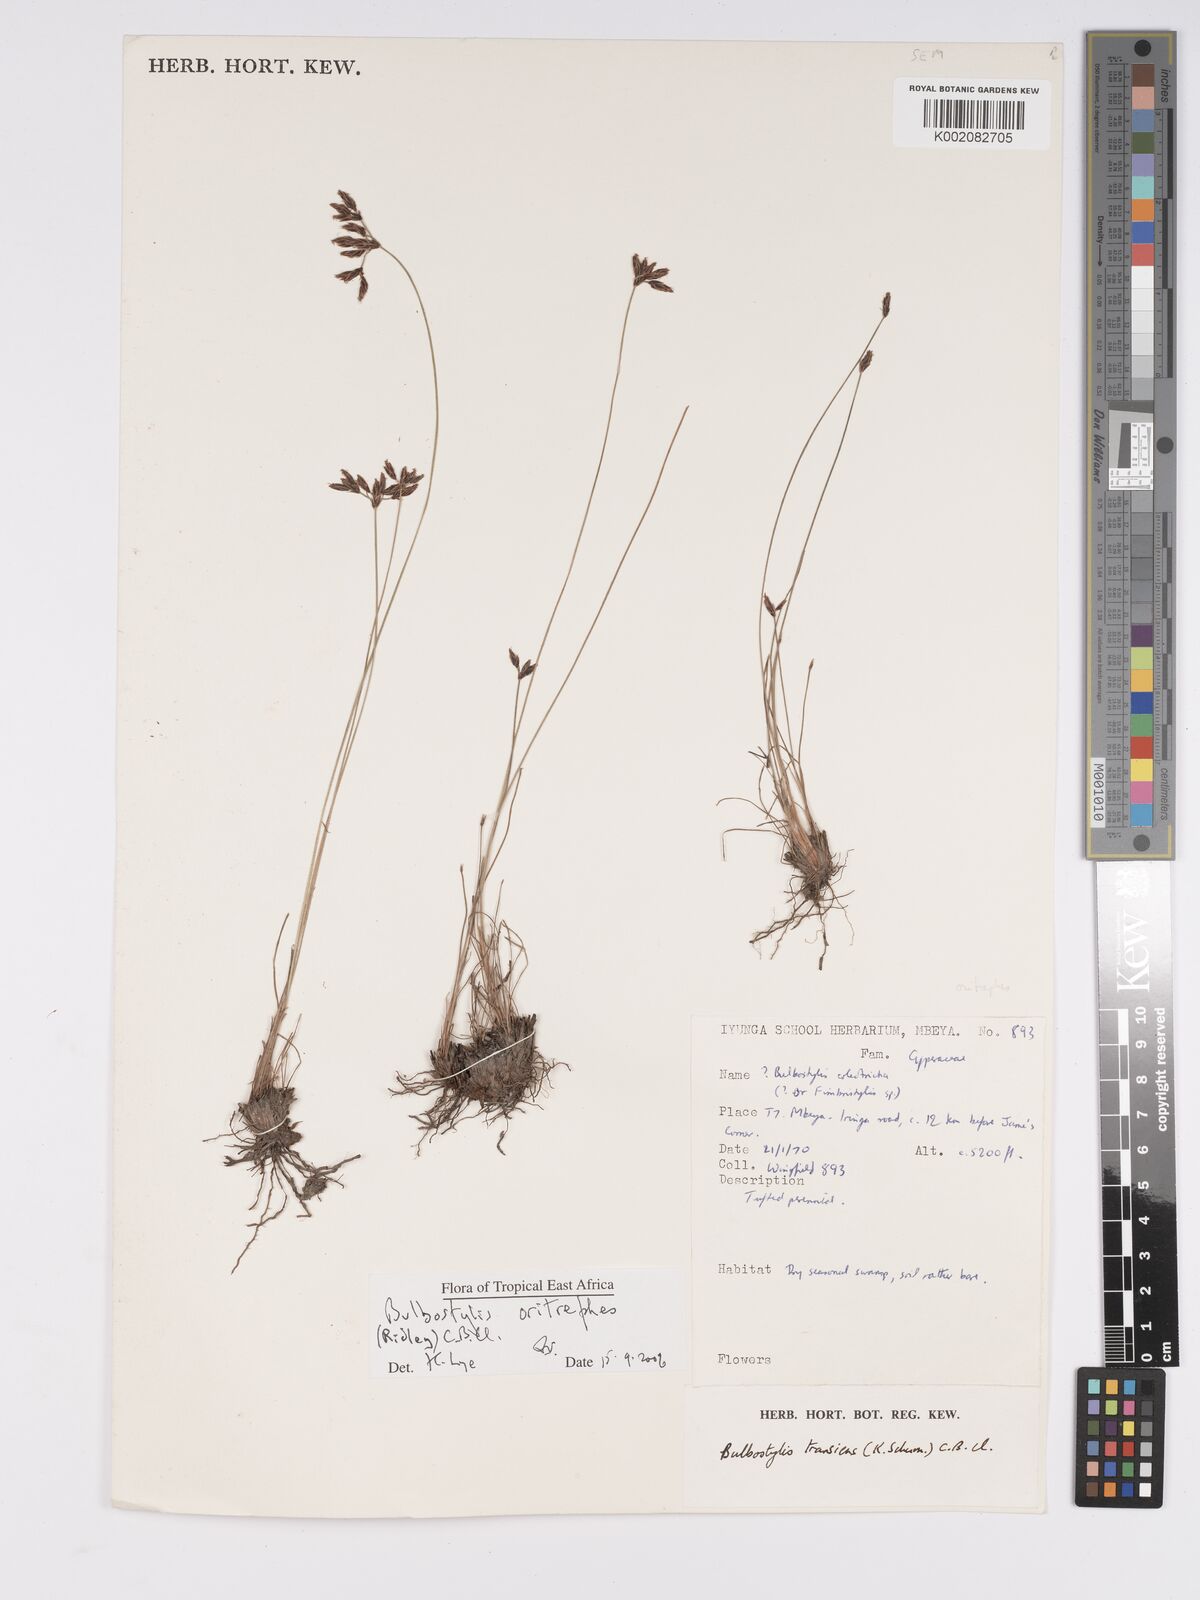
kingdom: Plantae
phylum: Tracheophyta
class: Liliopsida
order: Poales
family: Cyperaceae
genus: Bulbostylis
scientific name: Bulbostylis oritrephes
